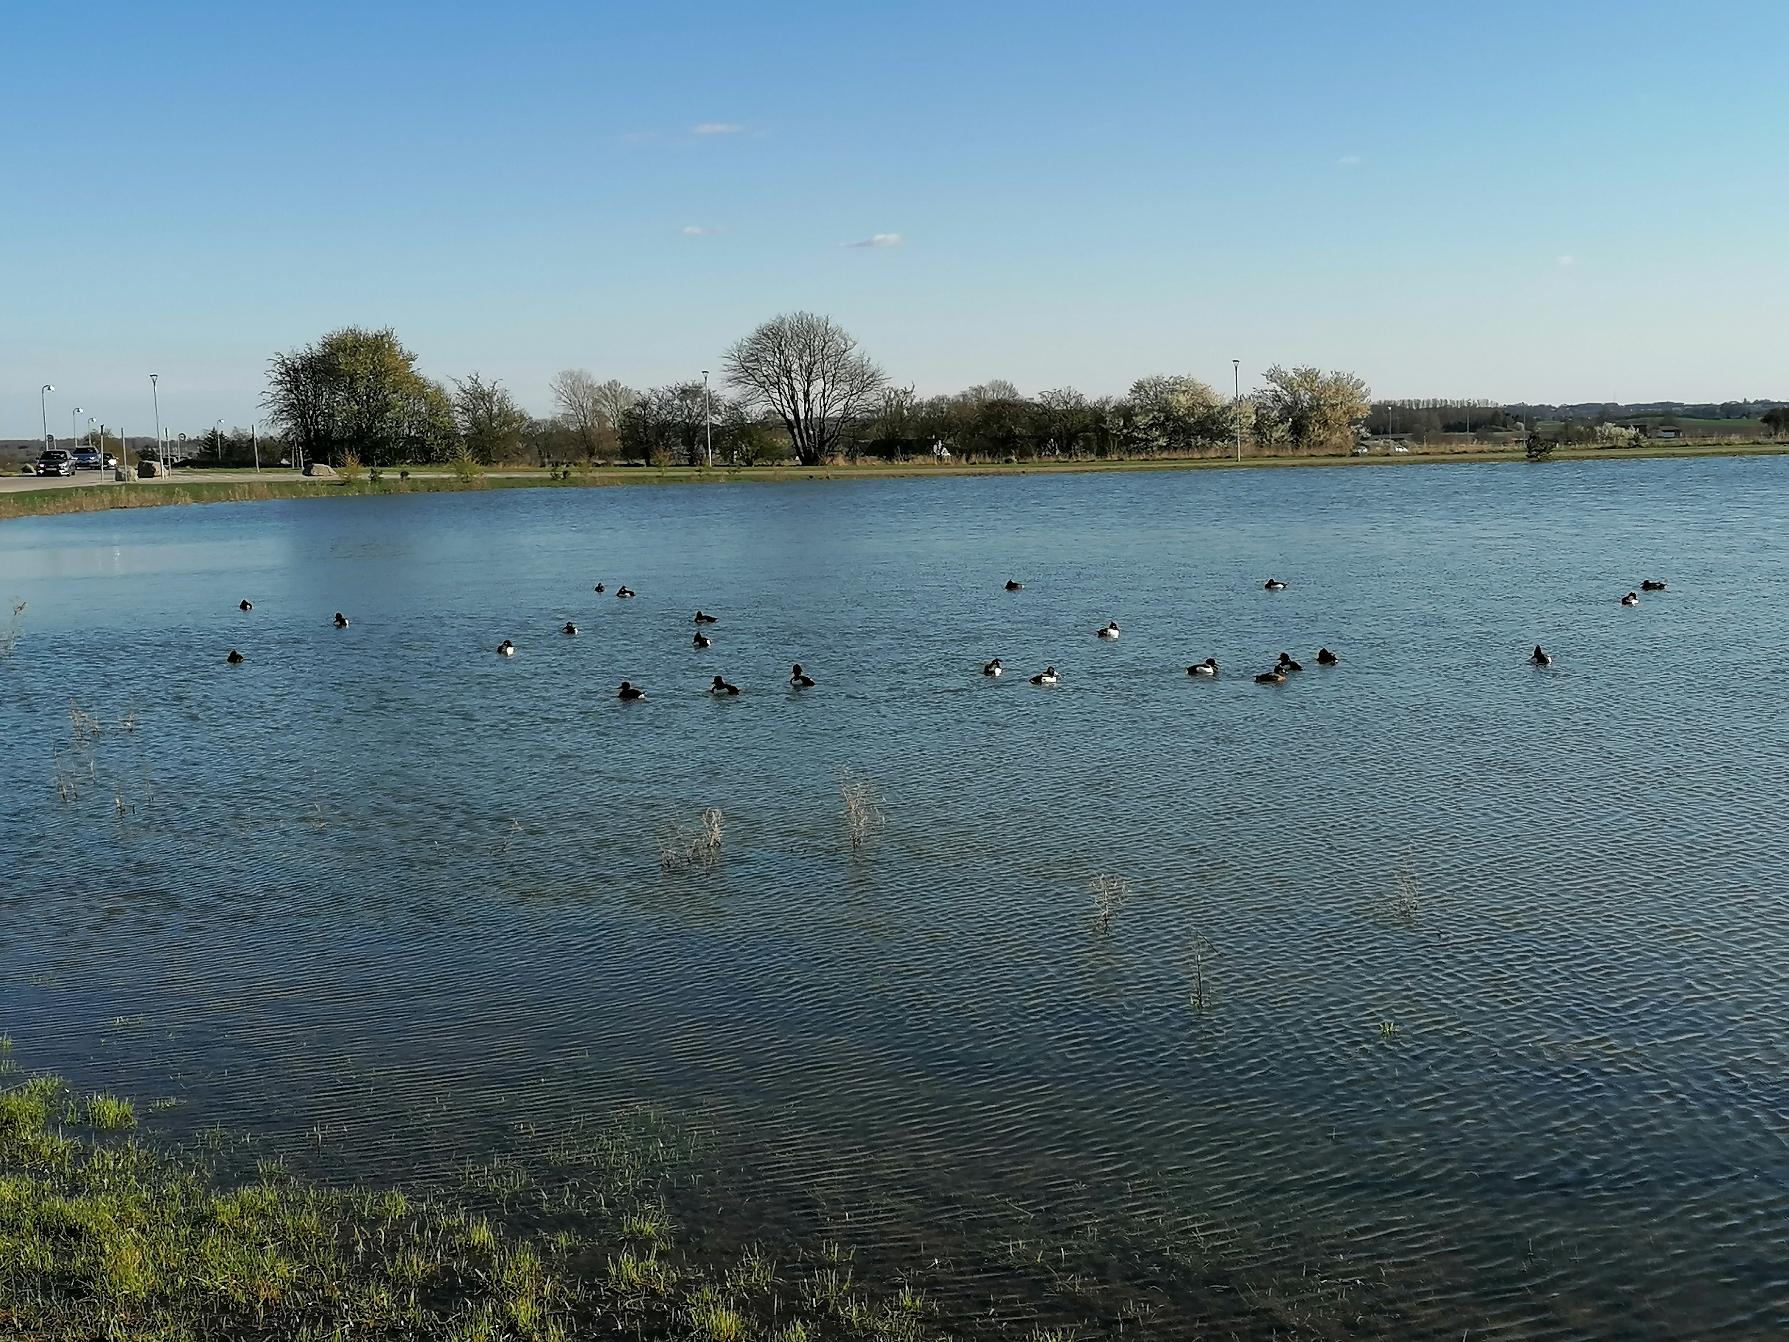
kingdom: Animalia
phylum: Chordata
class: Aves
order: Anseriformes
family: Anatidae
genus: Aythya
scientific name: Aythya fuligula
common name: Troldand
